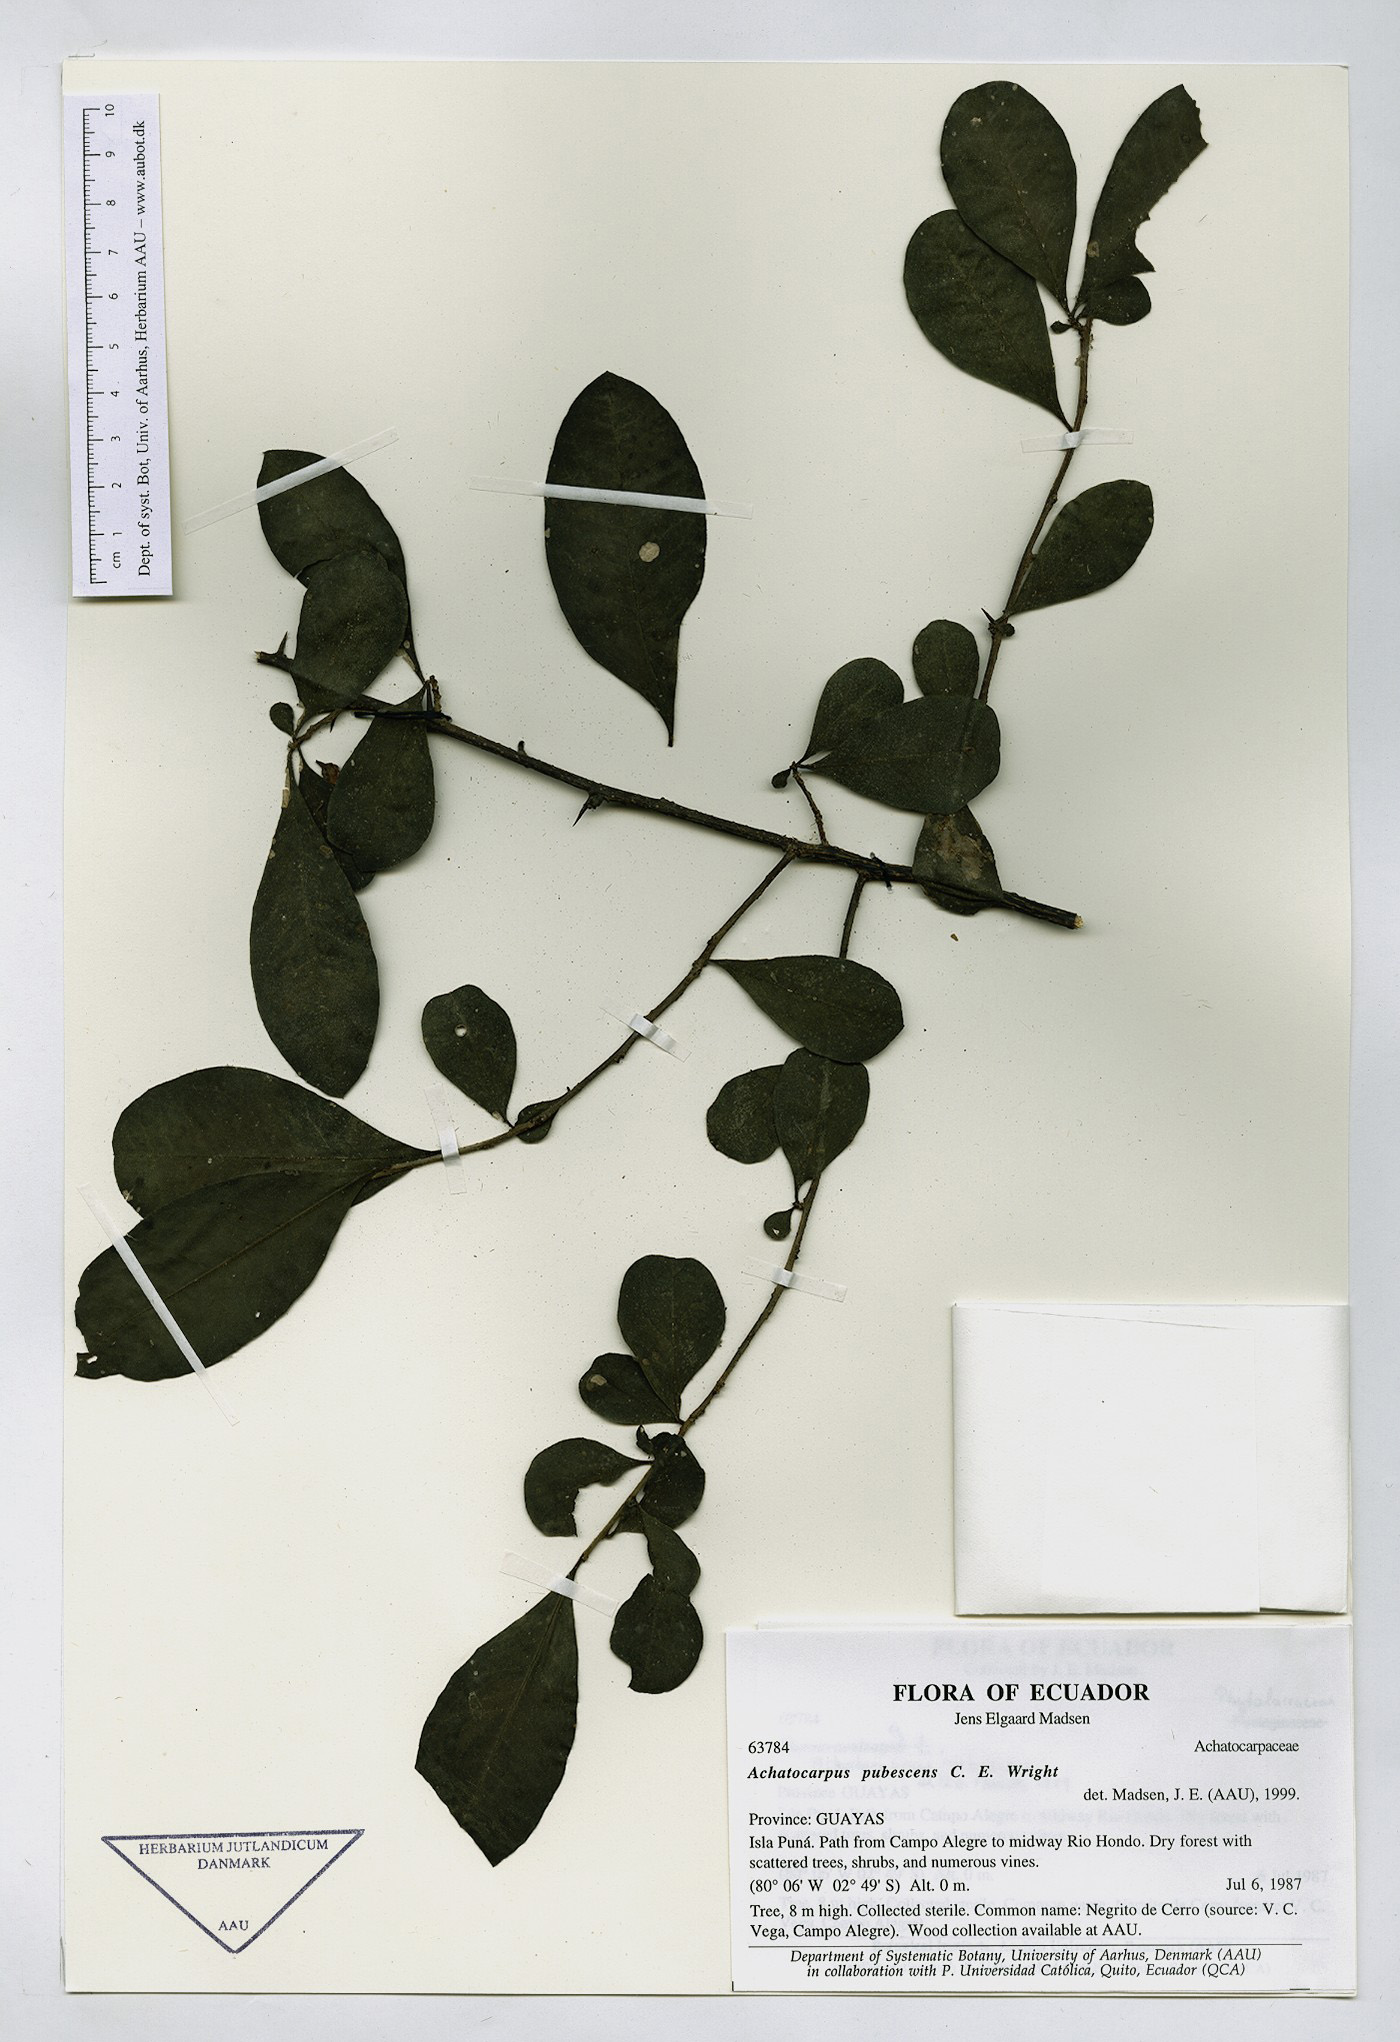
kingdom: Plantae
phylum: Tracheophyta
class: Magnoliopsida
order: Caryophyllales
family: Achatocarpaceae
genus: Achatocarpus
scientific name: Achatocarpus pubescens
